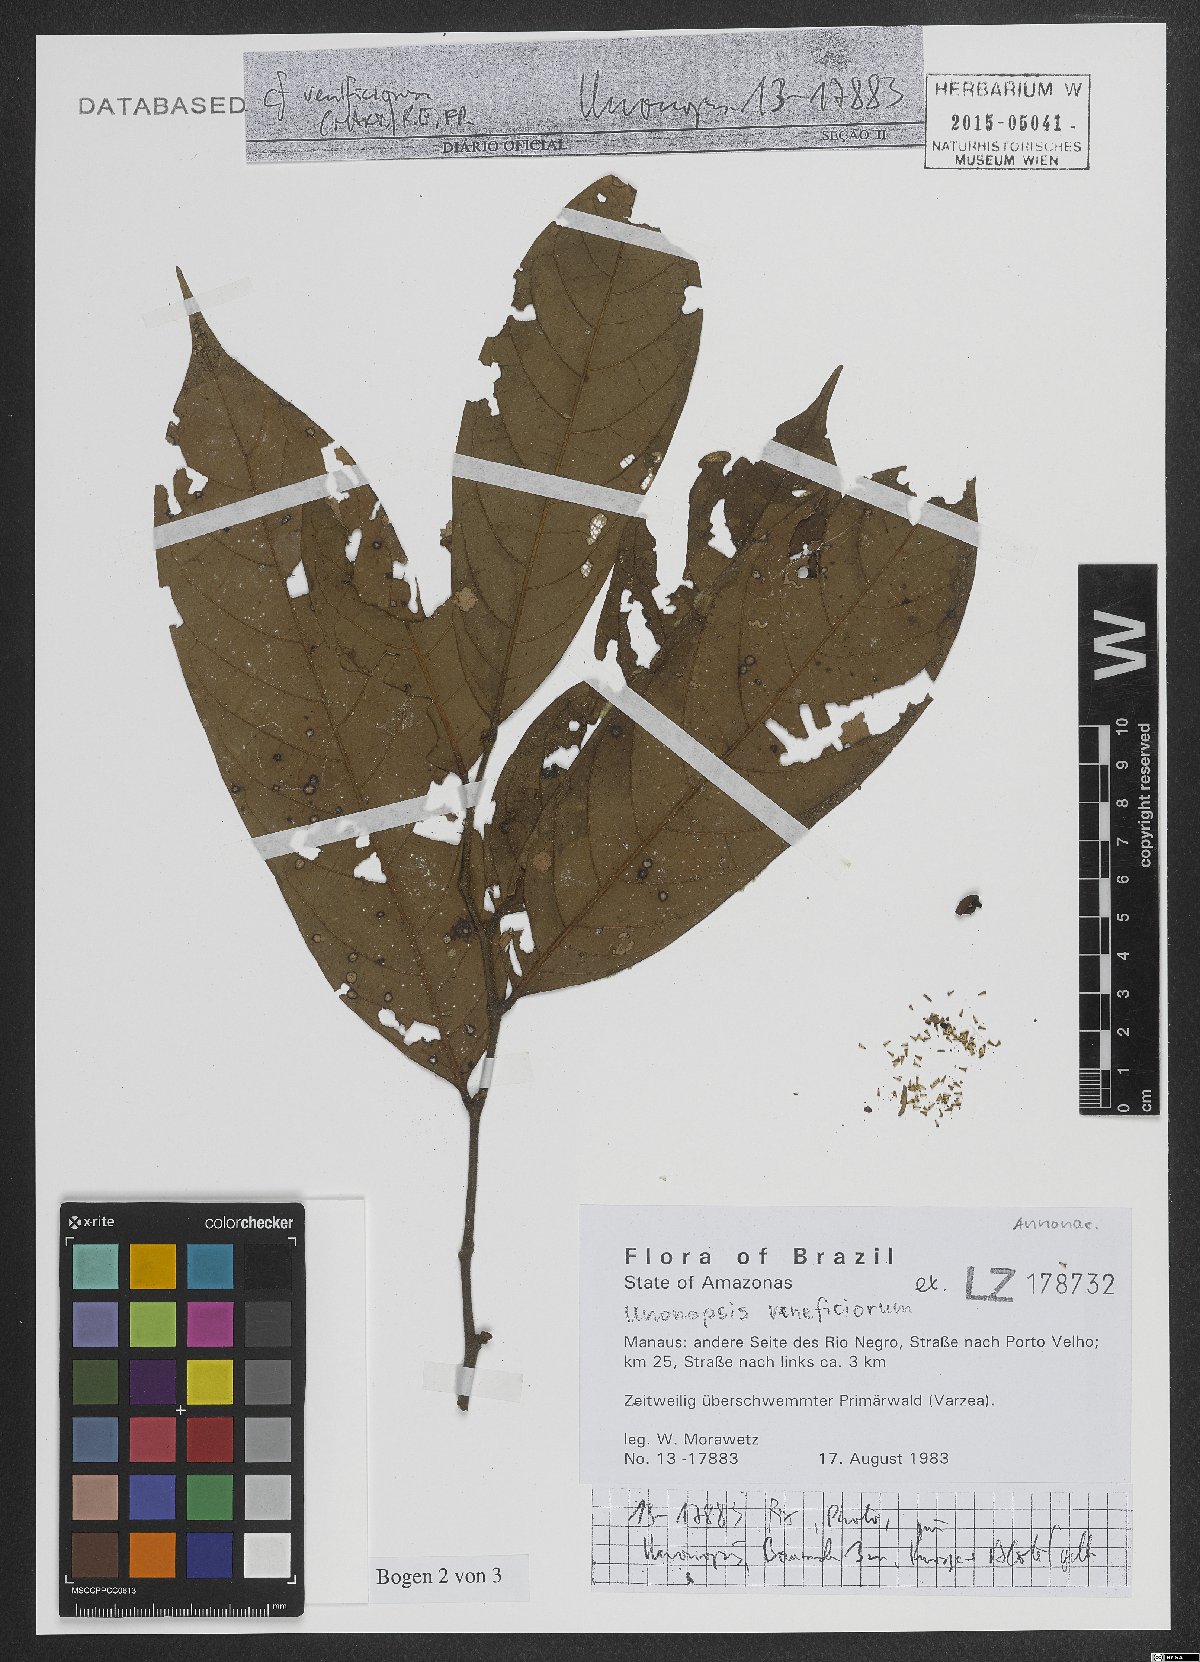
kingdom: Plantae
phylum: Tracheophyta
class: Magnoliopsida
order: Magnoliales
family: Annonaceae
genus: Unonopsis
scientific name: Unonopsis veneficiorum
